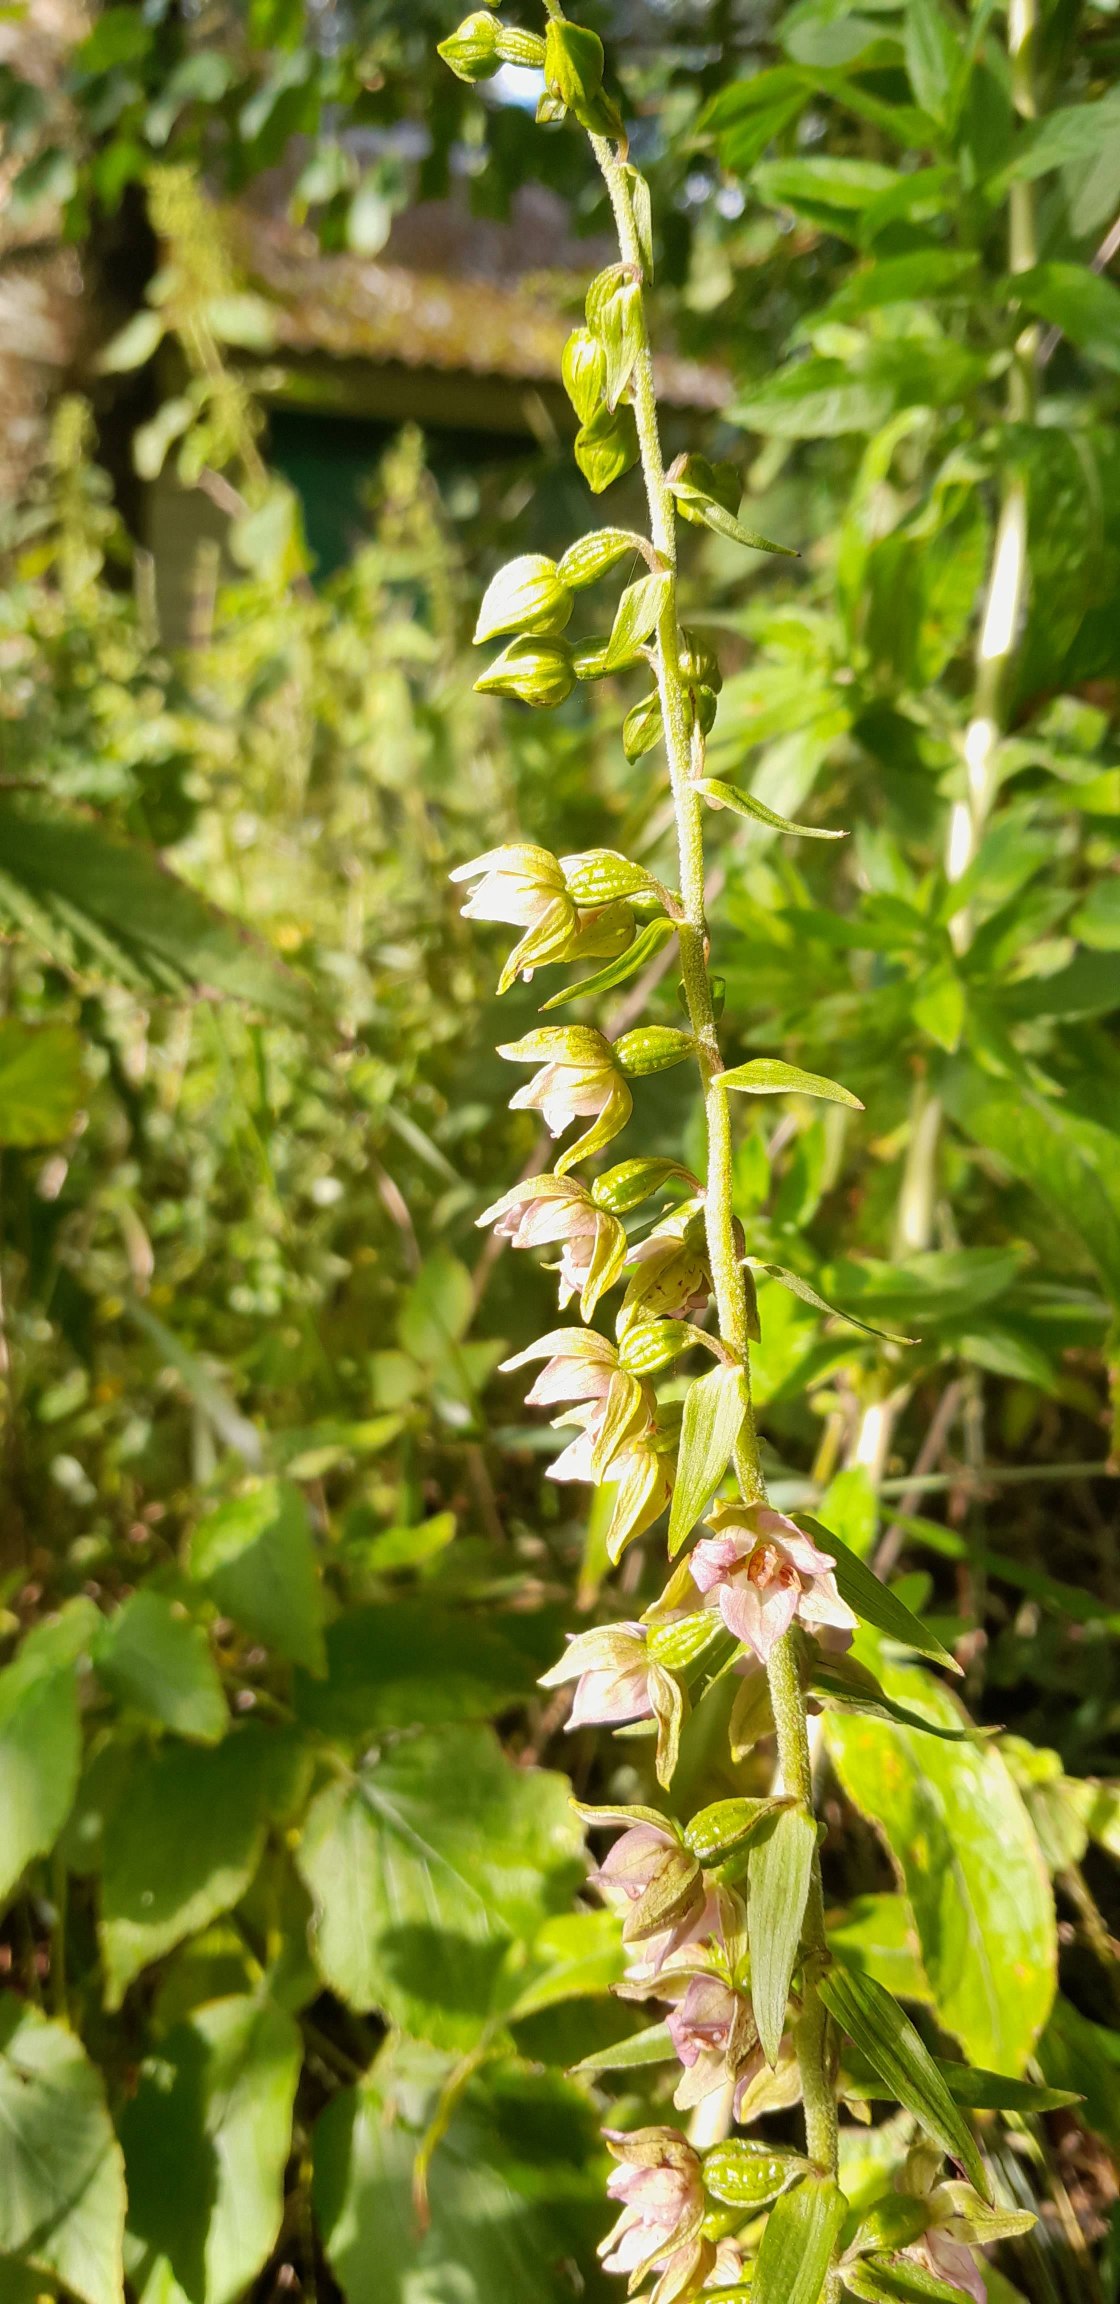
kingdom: Plantae
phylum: Tracheophyta
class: Liliopsida
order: Asparagales
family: Orchidaceae
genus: Epipactis
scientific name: Epipactis helleborine
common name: Skov-hullæbe
